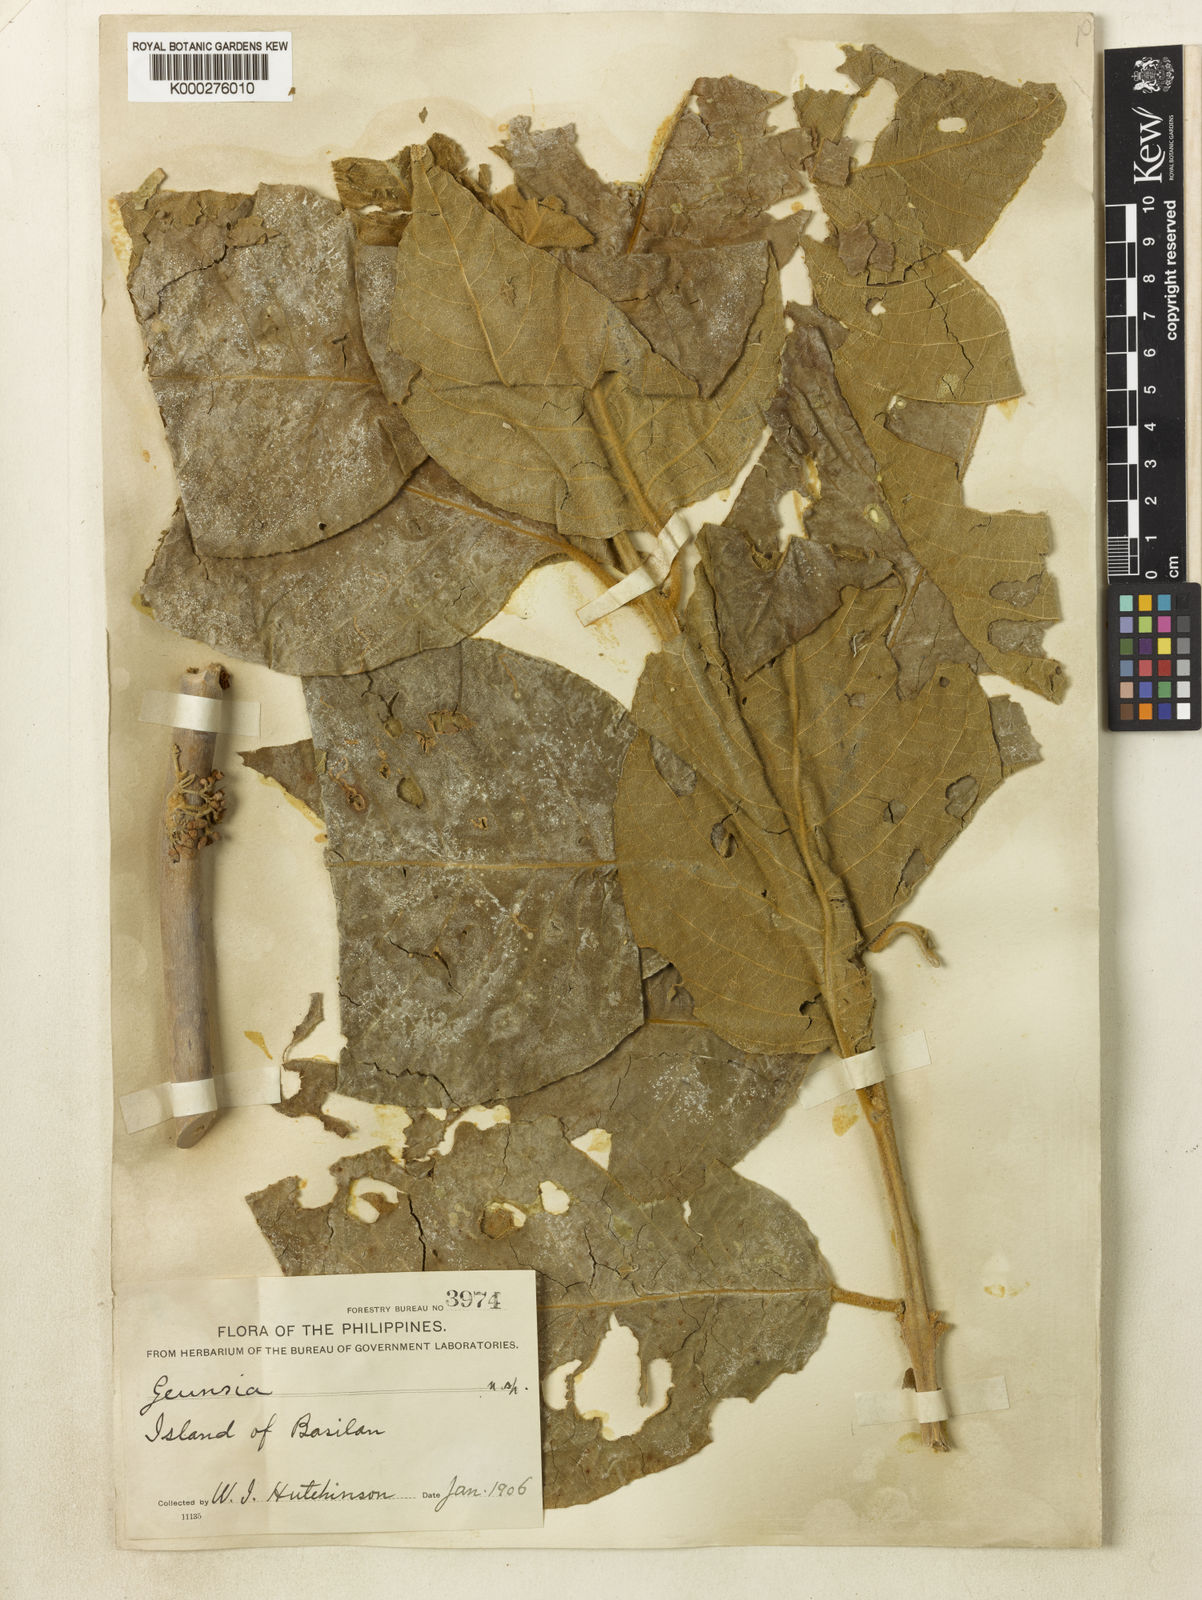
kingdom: Plantae
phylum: Tracheophyta
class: Magnoliopsida
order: Lamiales
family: Lamiaceae
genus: Callicarpa
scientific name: Callicarpa basilanensis
